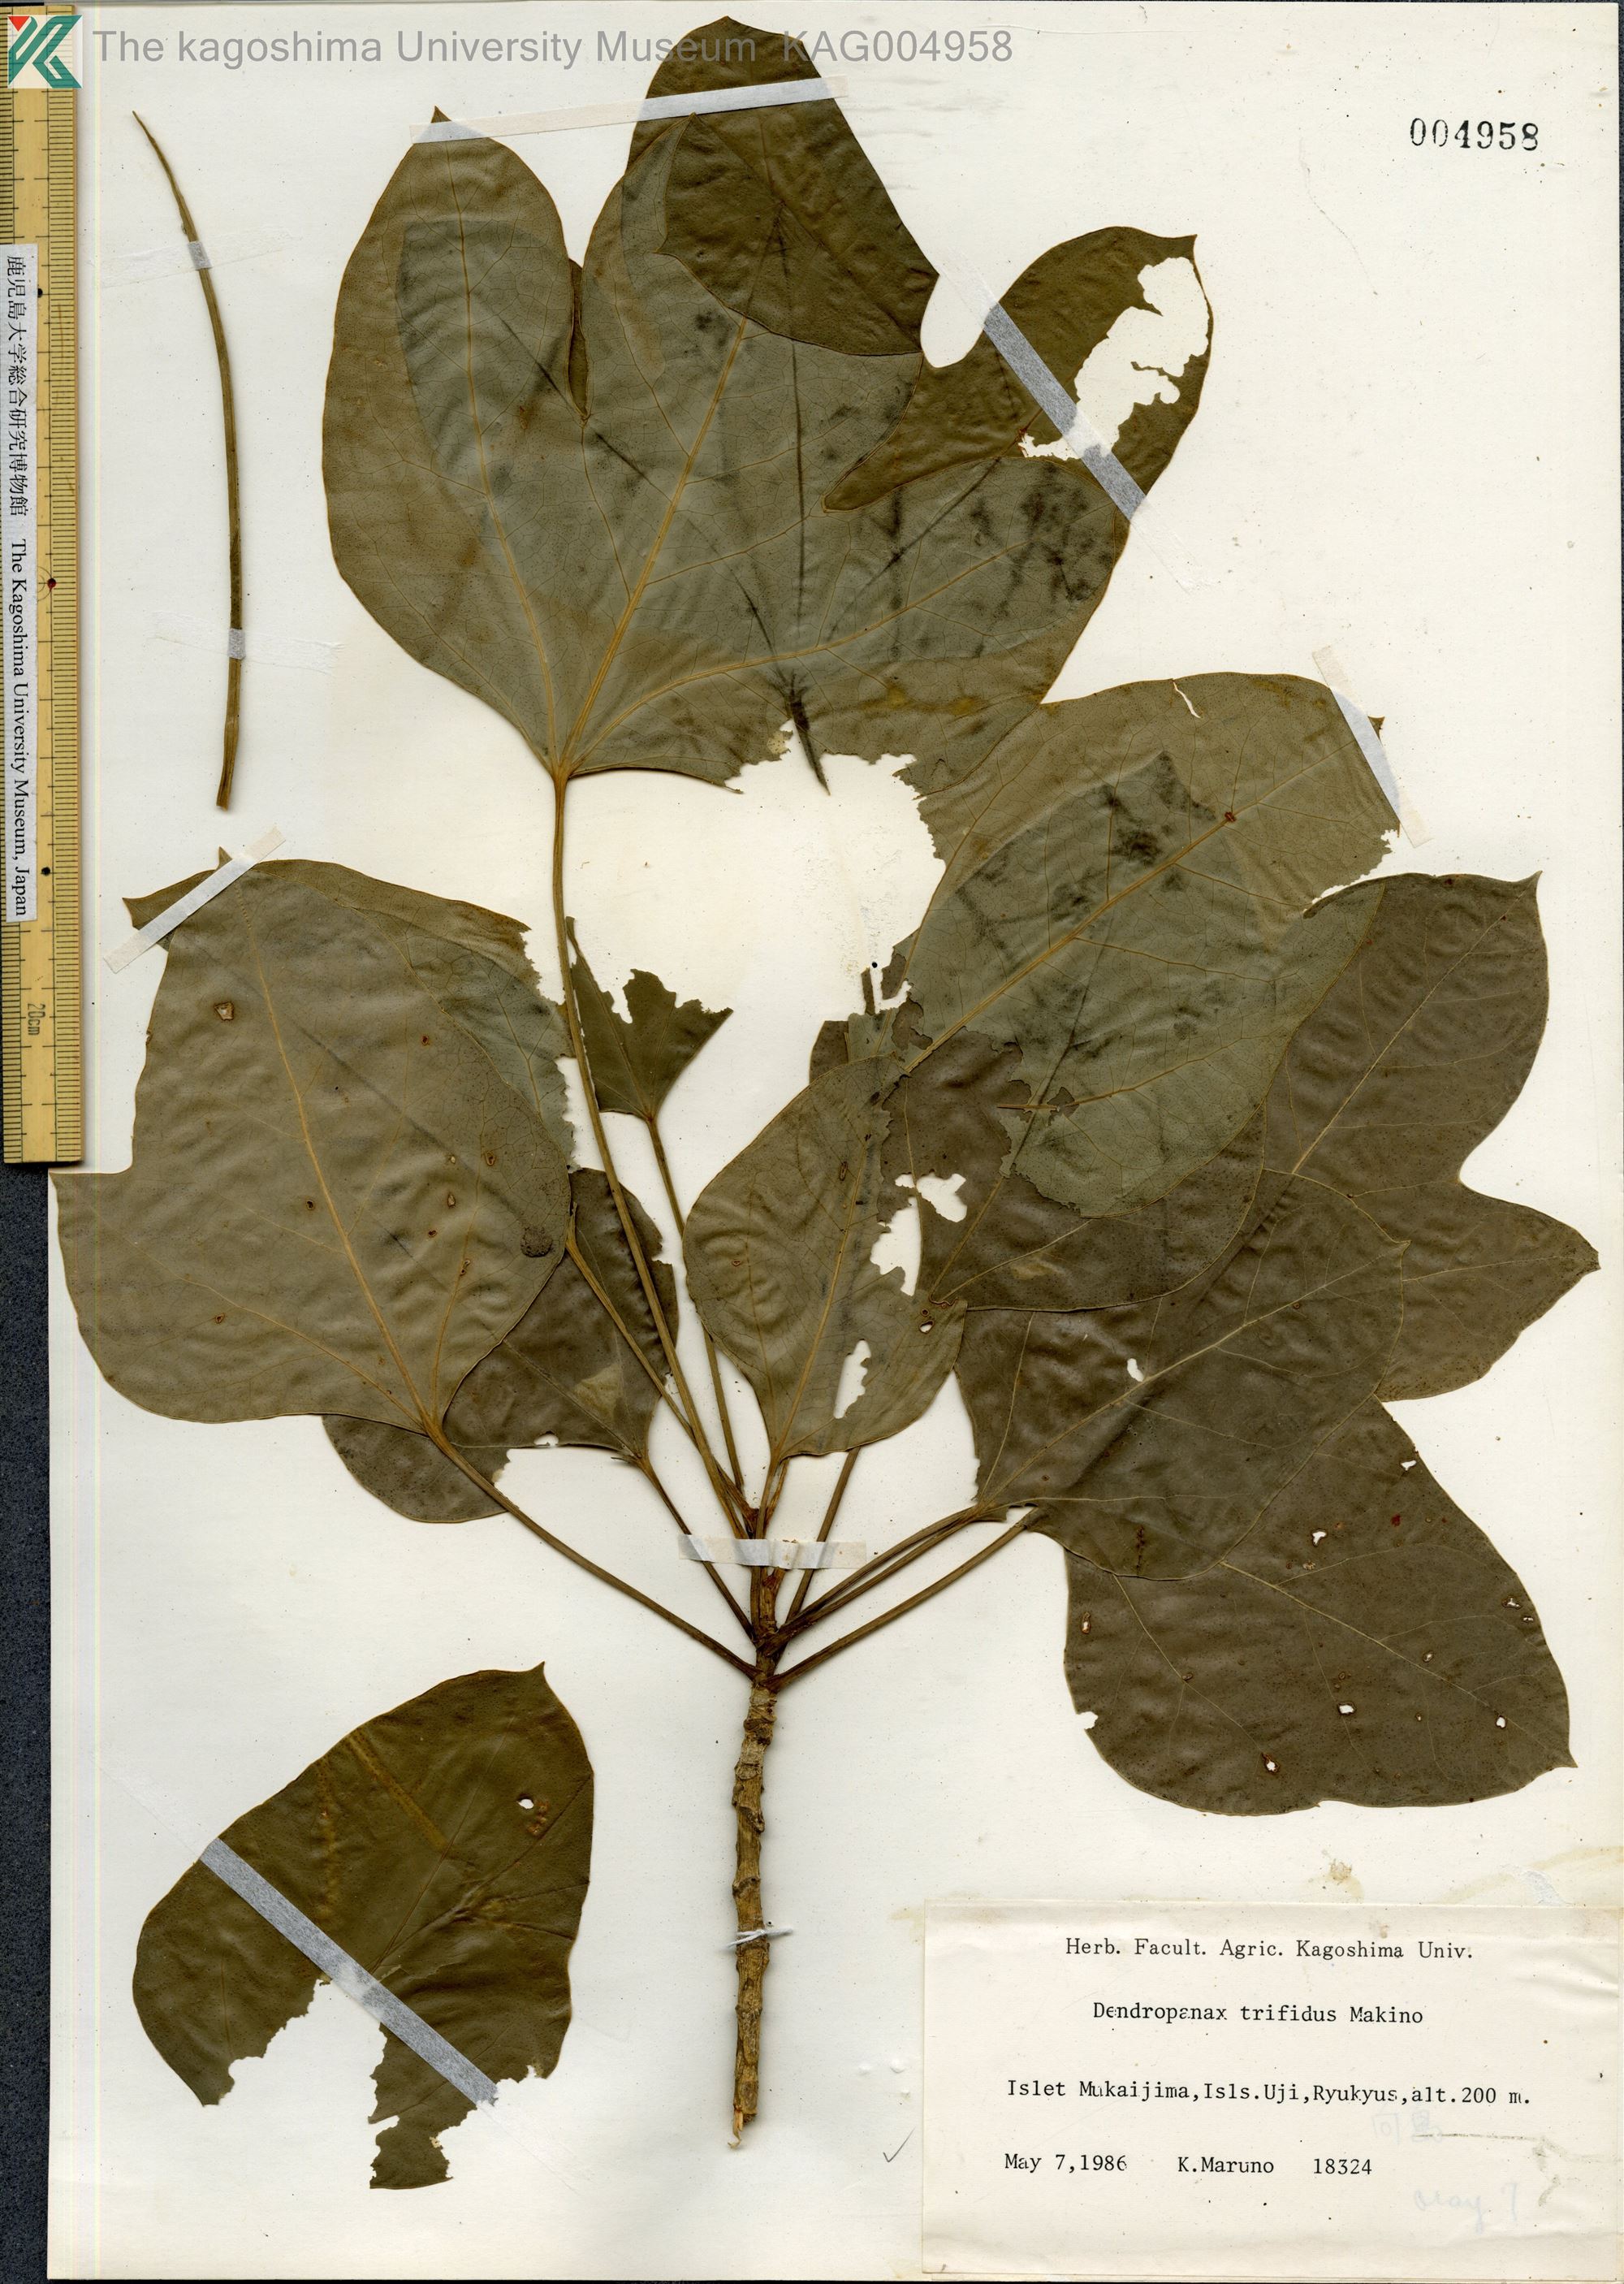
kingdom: Plantae
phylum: Tracheophyta
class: Magnoliopsida
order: Apiales
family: Araliaceae
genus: Dendropanax
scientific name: Dendropanax trifidus
